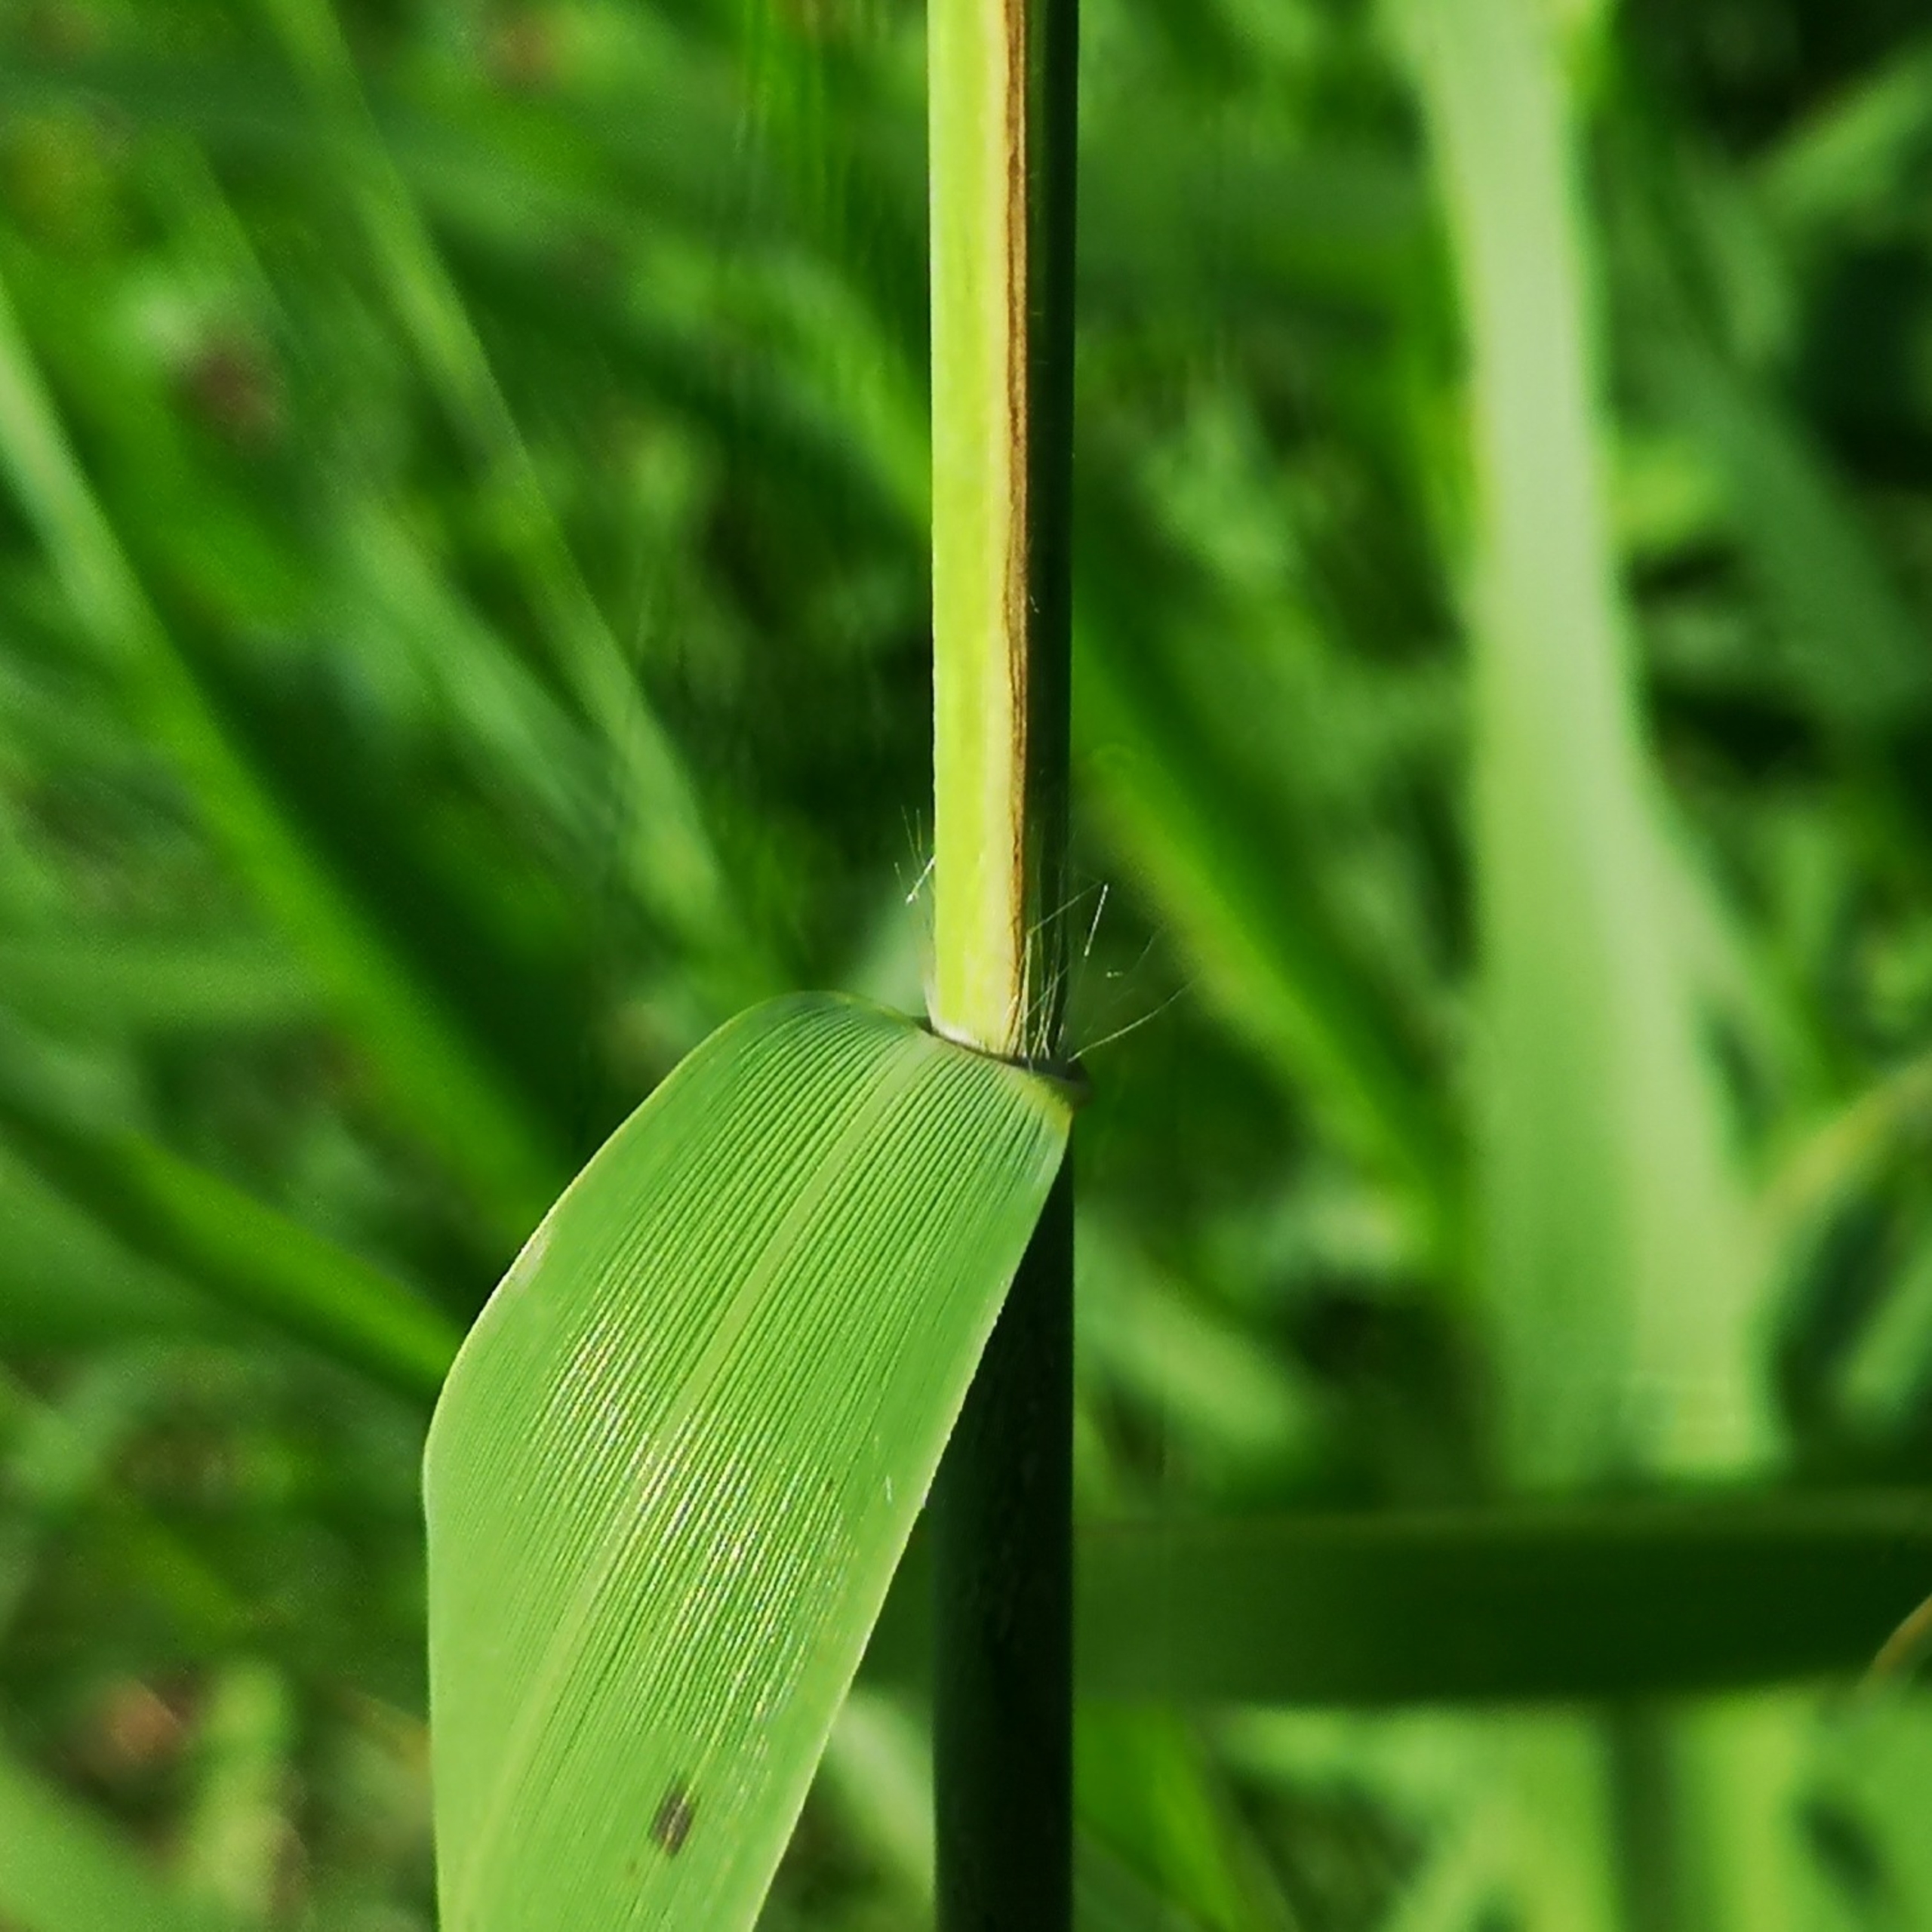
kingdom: Plantae
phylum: Tracheophyta
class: Liliopsida
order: Poales
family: Poaceae
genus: Phragmites
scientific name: Phragmites australis
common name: Tagrør
